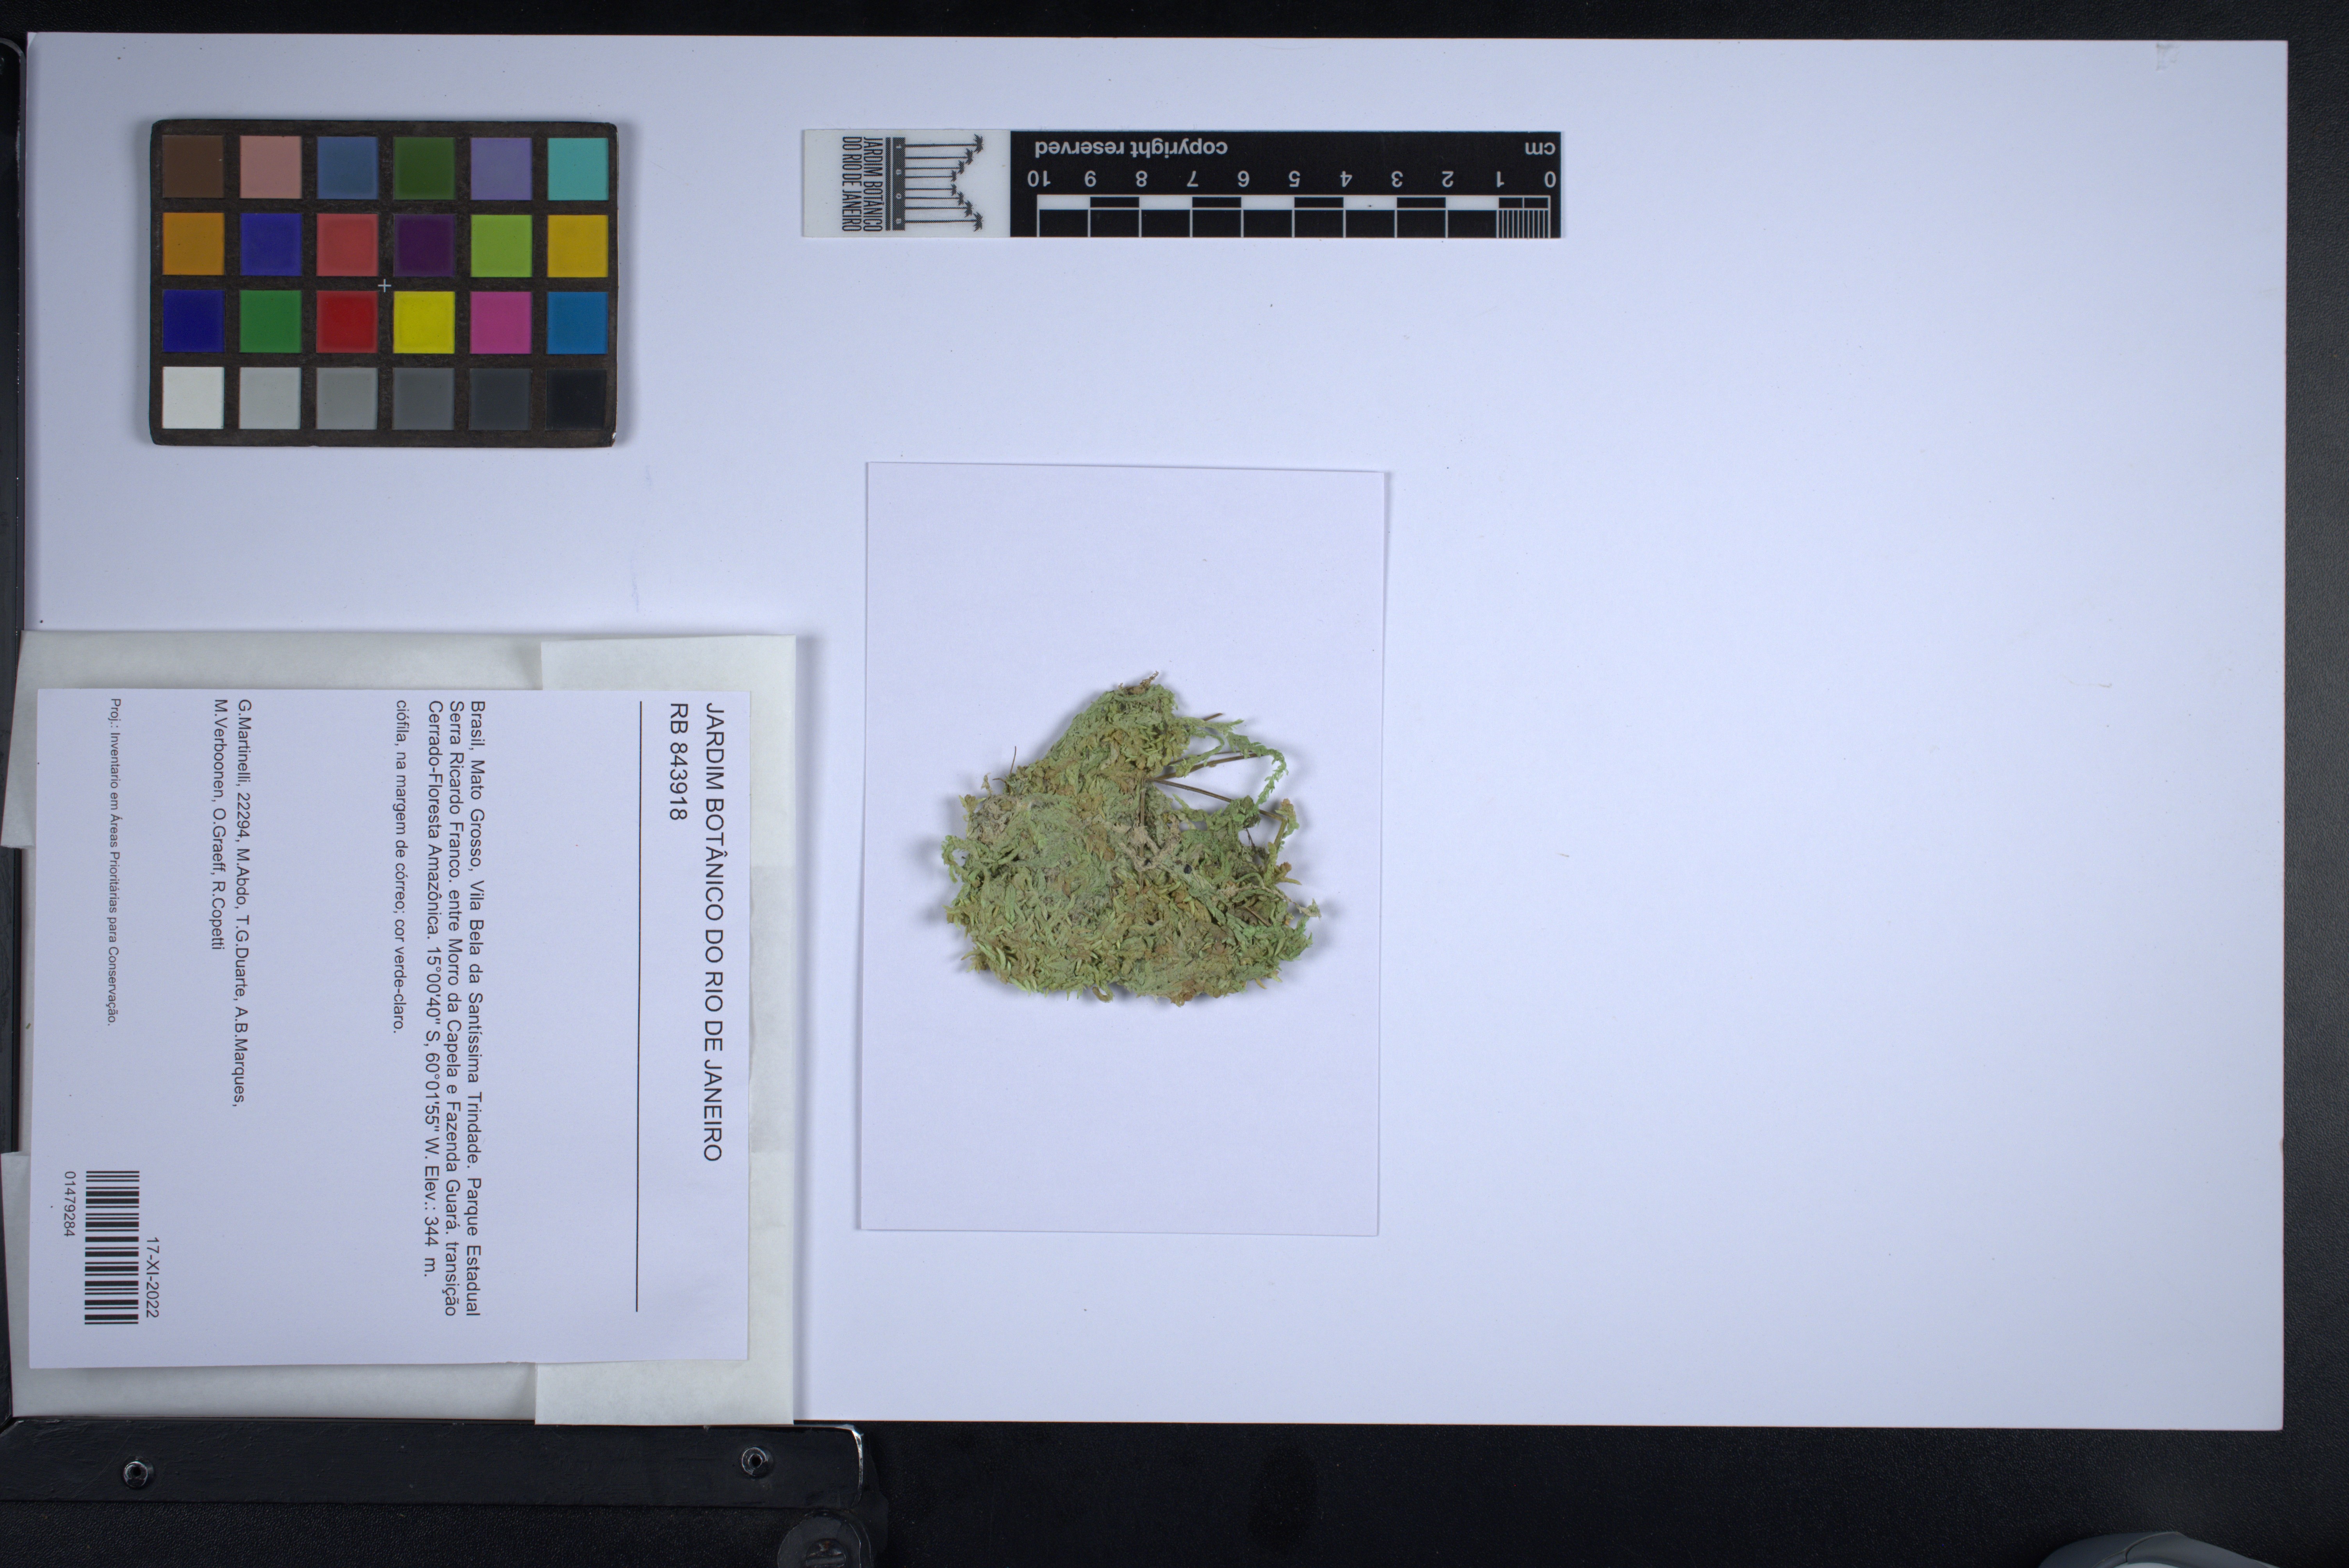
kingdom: Plantae
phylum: Bryophyta
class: Sphagnopsida
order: Sphagnales
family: Sphagnaceae
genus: Sphagnum
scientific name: Sphagnum crumii
